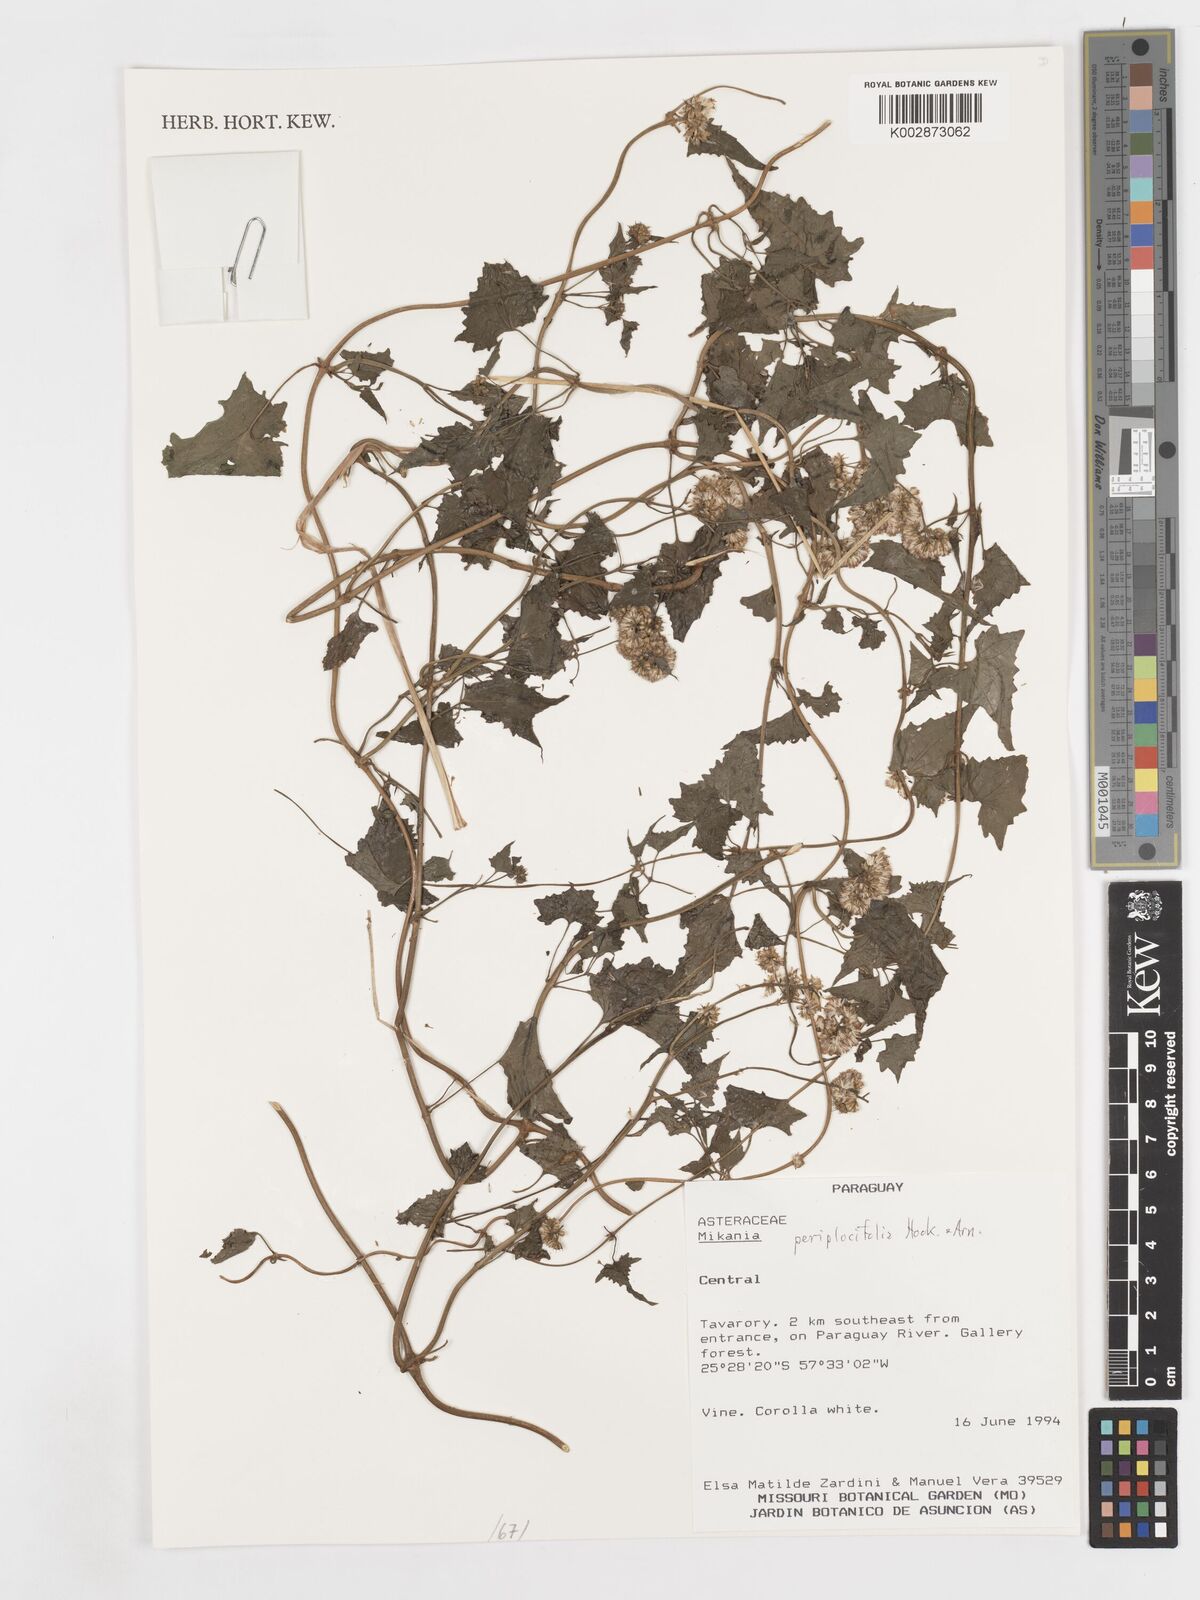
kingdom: Plantae
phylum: Tracheophyta
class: Magnoliopsida
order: Asterales
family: Asteraceae
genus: Mikania
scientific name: Mikania periplocifolia
